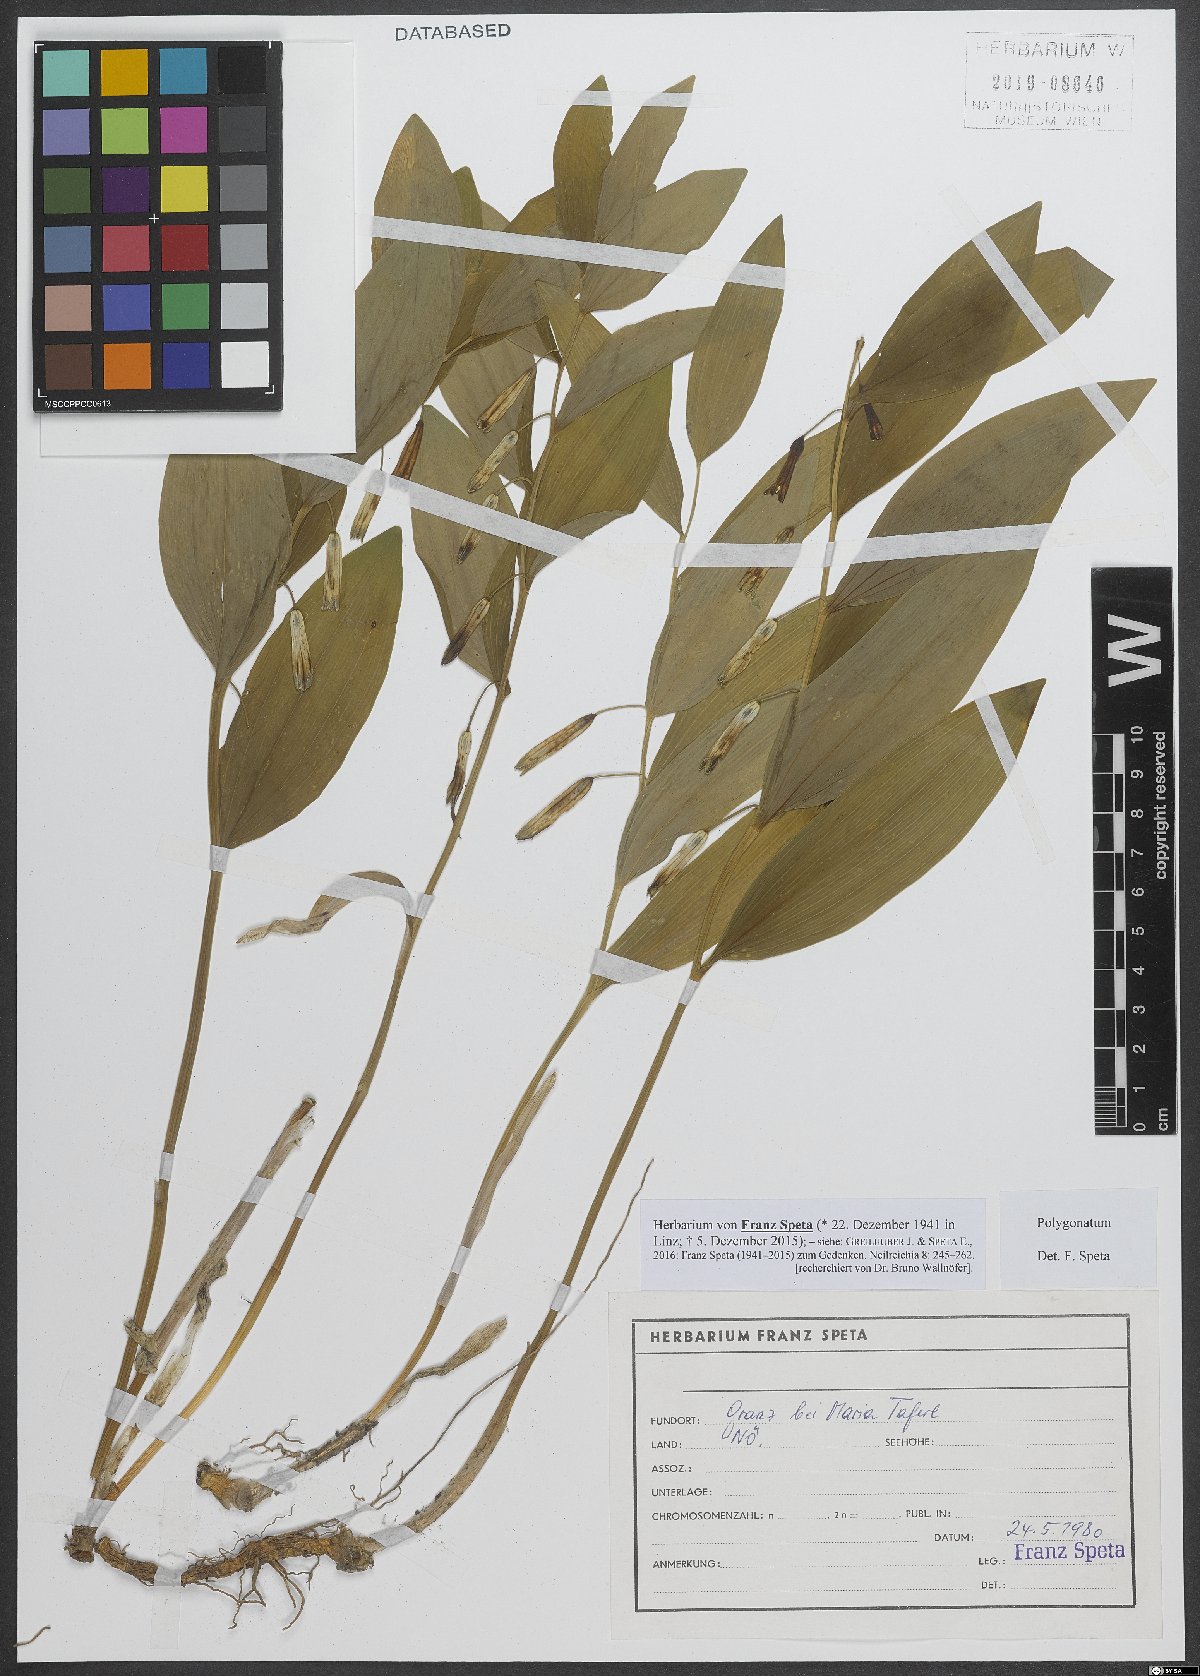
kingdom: Plantae
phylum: Tracheophyta
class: Liliopsida
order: Asparagales
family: Asparagaceae
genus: Polygonatum
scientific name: Polygonatum
